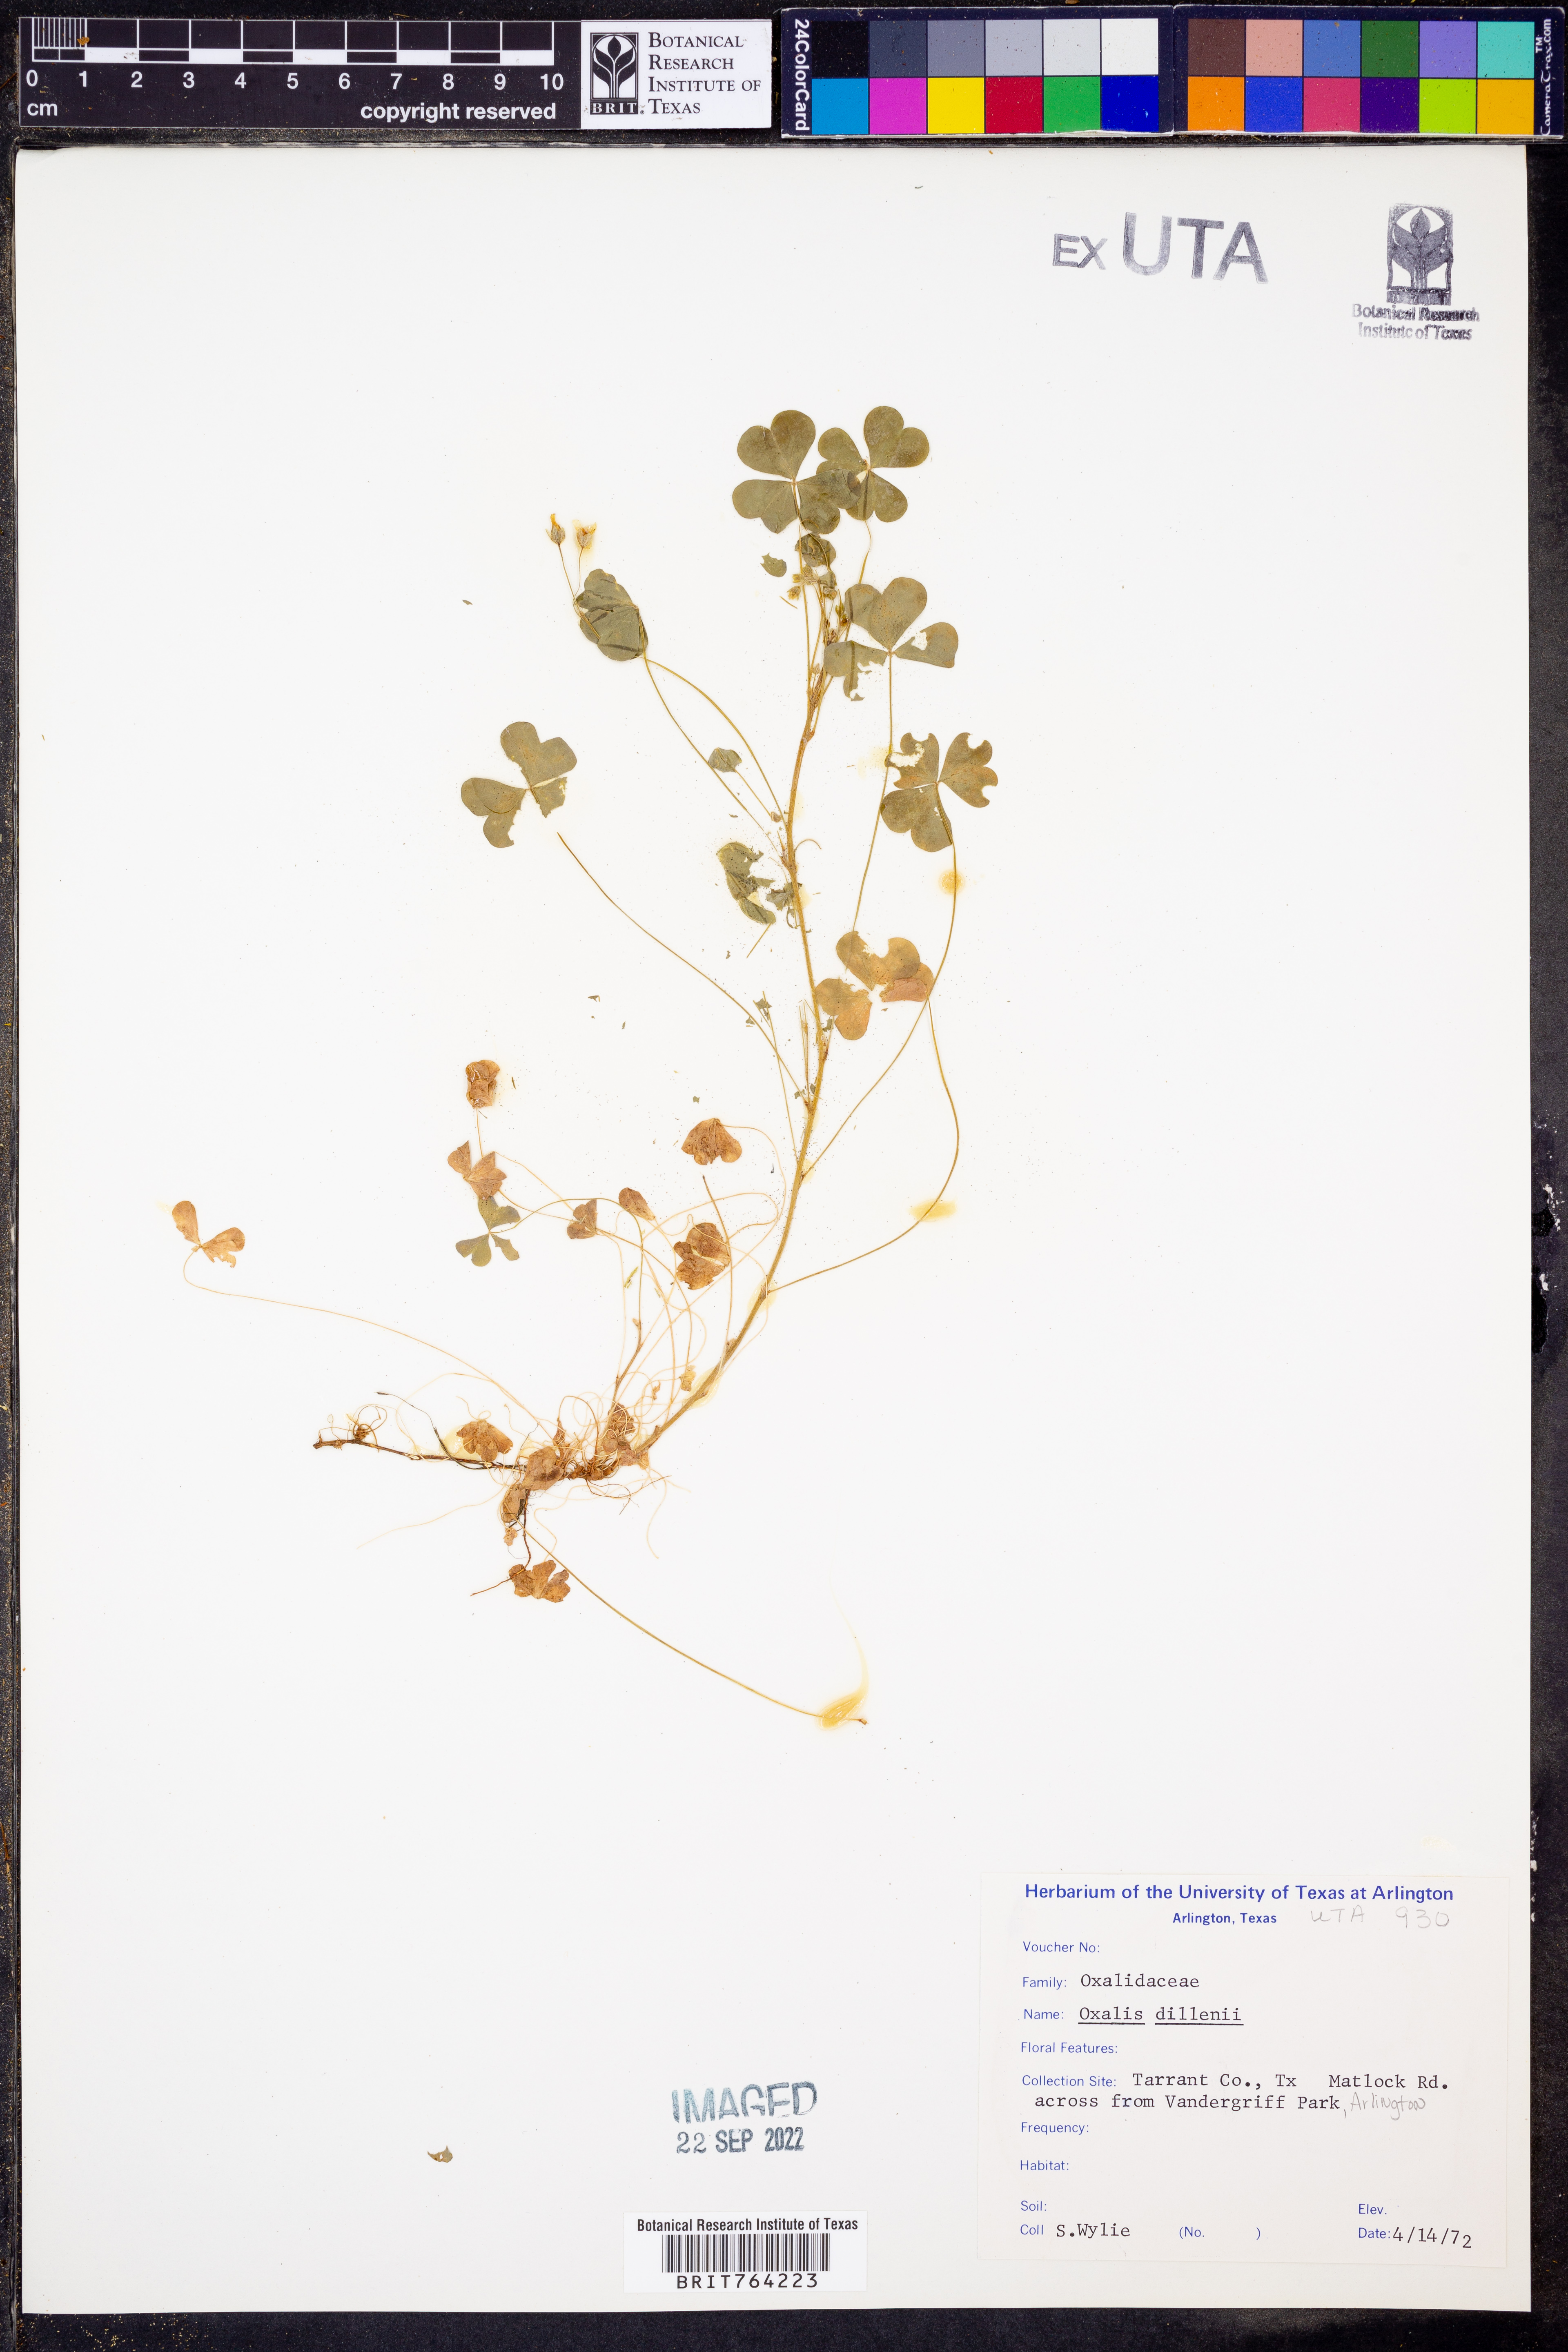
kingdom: Plantae
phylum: Tracheophyta
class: Magnoliopsida
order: Oxalidales
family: Oxalidaceae
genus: Oxalis
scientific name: Oxalis dillenii
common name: Sussex yellow-sorrel
